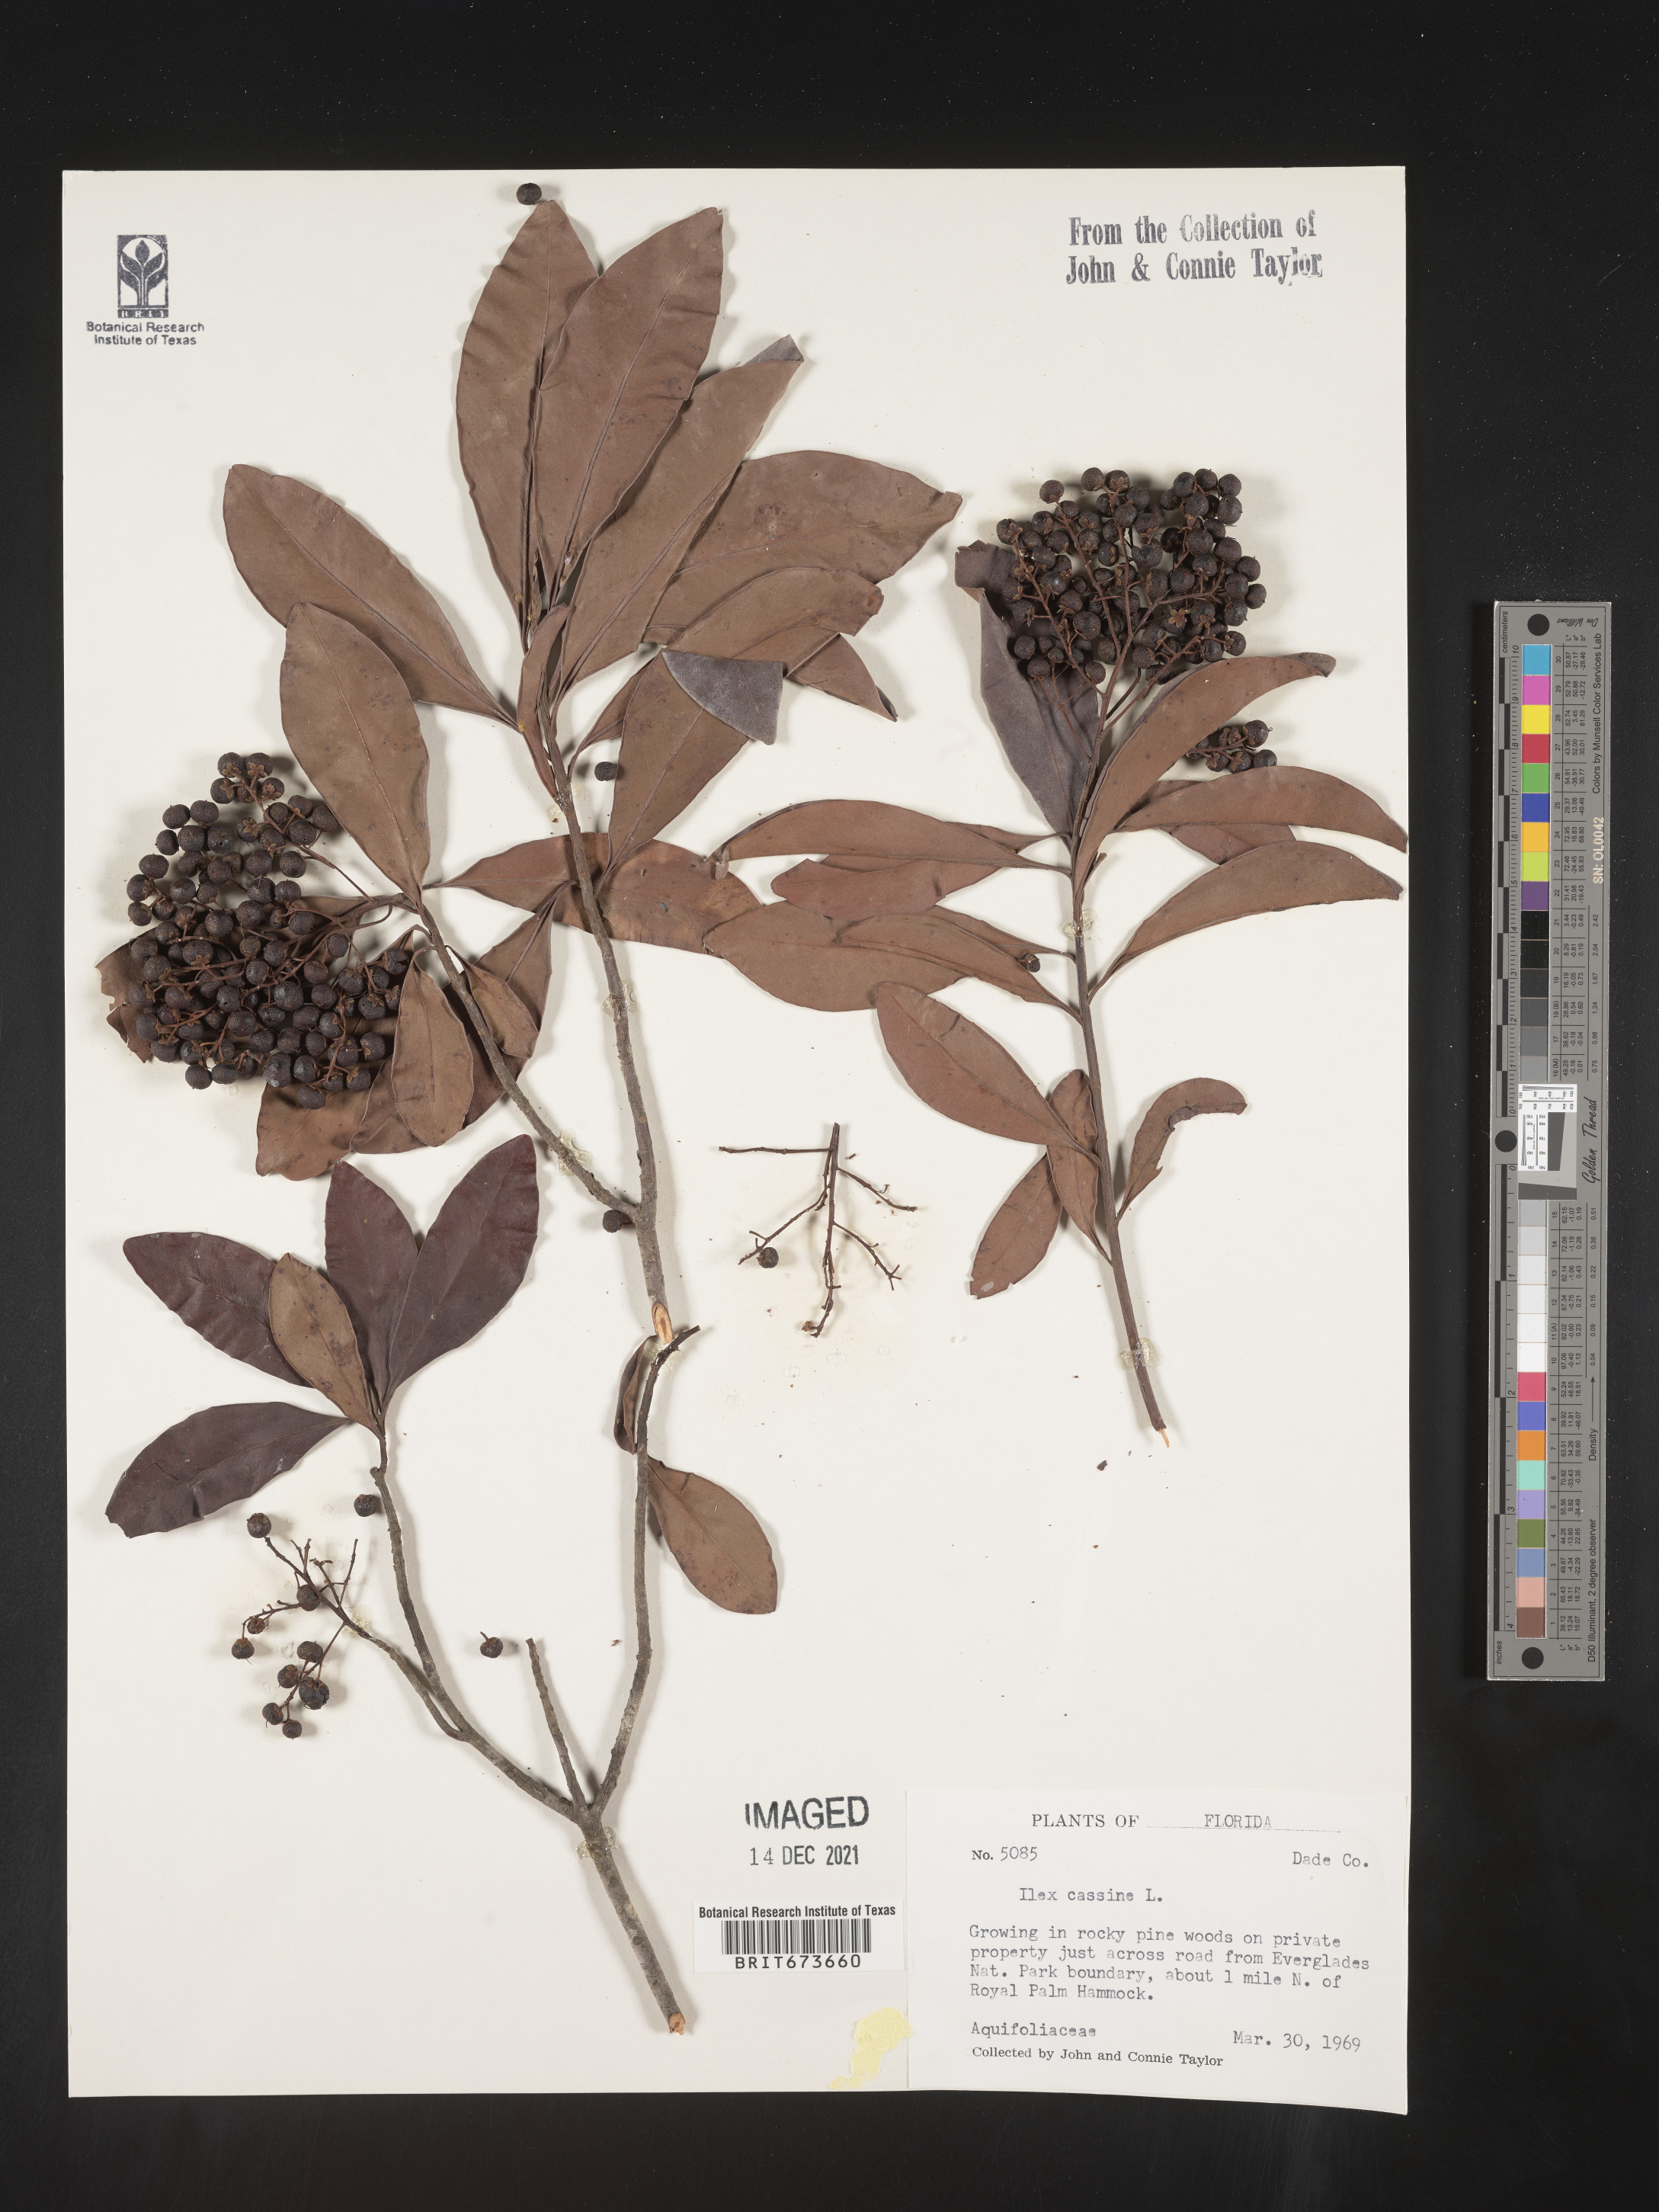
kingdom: Plantae
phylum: Tracheophyta
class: Magnoliopsida
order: Aquifoliales
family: Aquifoliaceae
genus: Ilex
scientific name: Ilex cassine
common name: Dahoon
